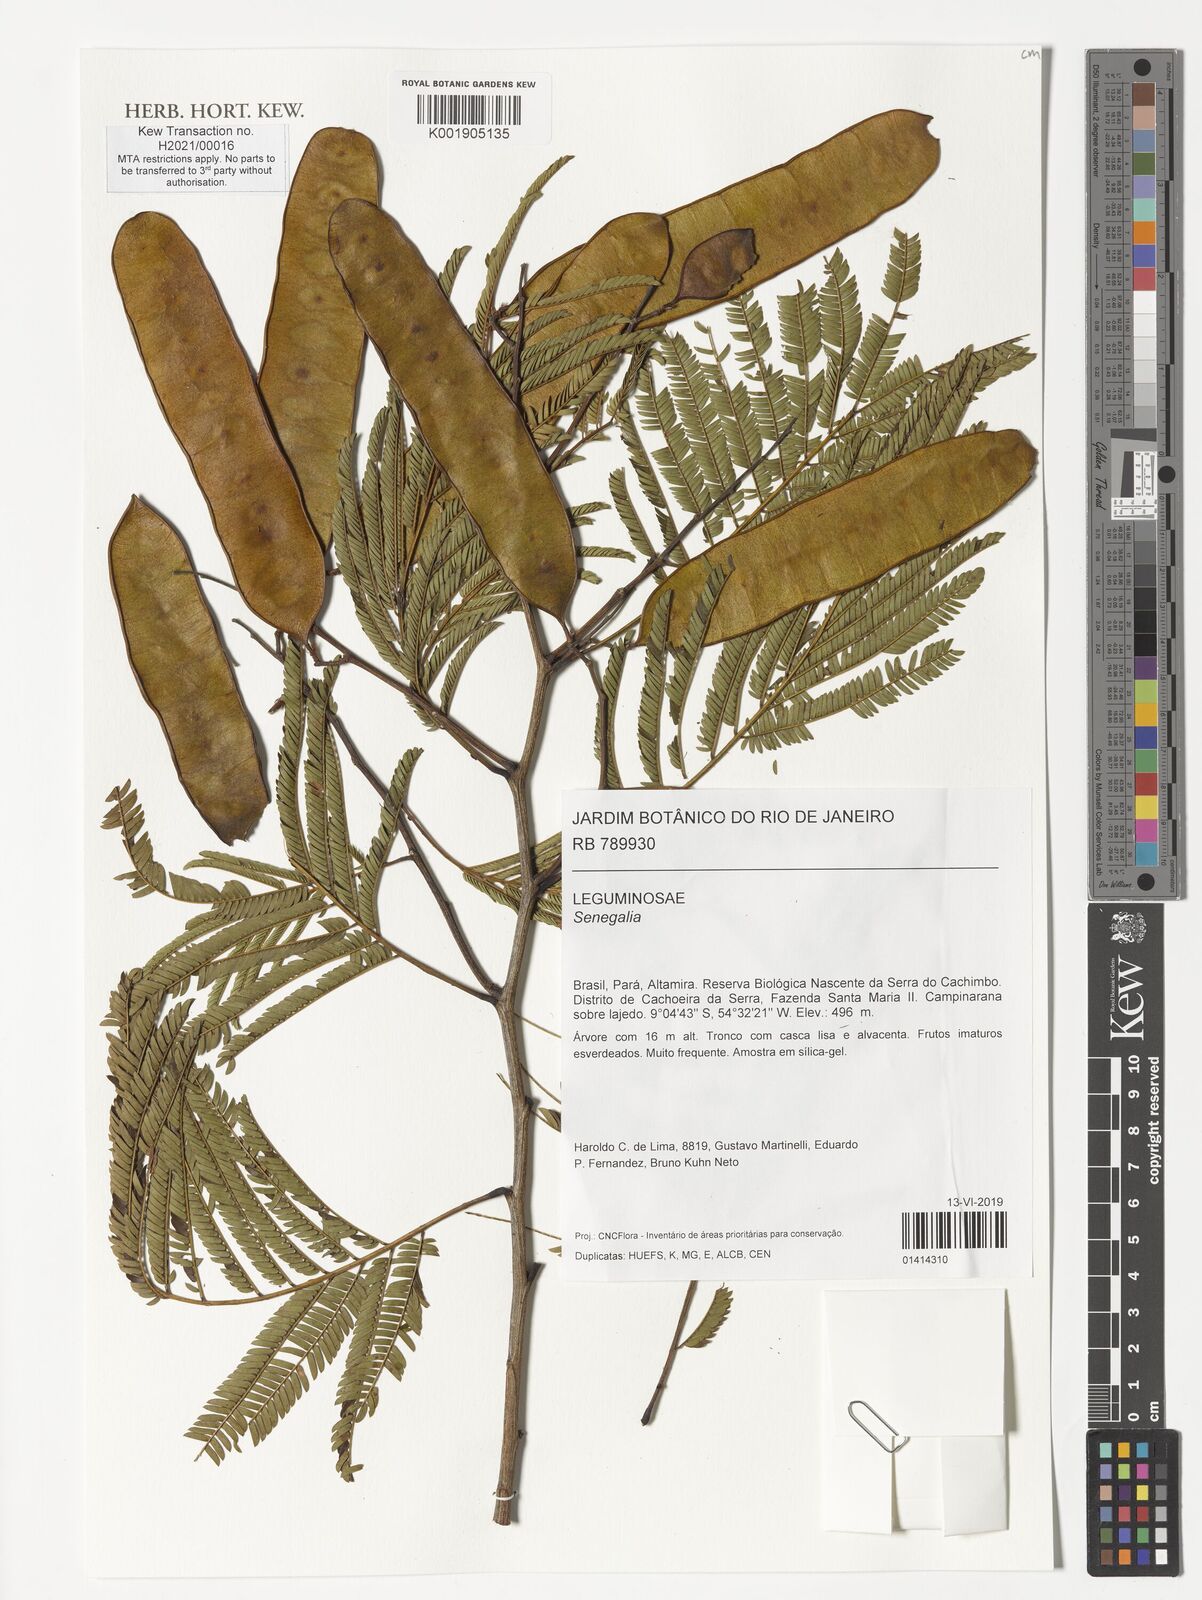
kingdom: Plantae
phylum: Tracheophyta
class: Magnoliopsida
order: Fabales
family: Fabaceae
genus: Senegalia
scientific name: Senegalia
